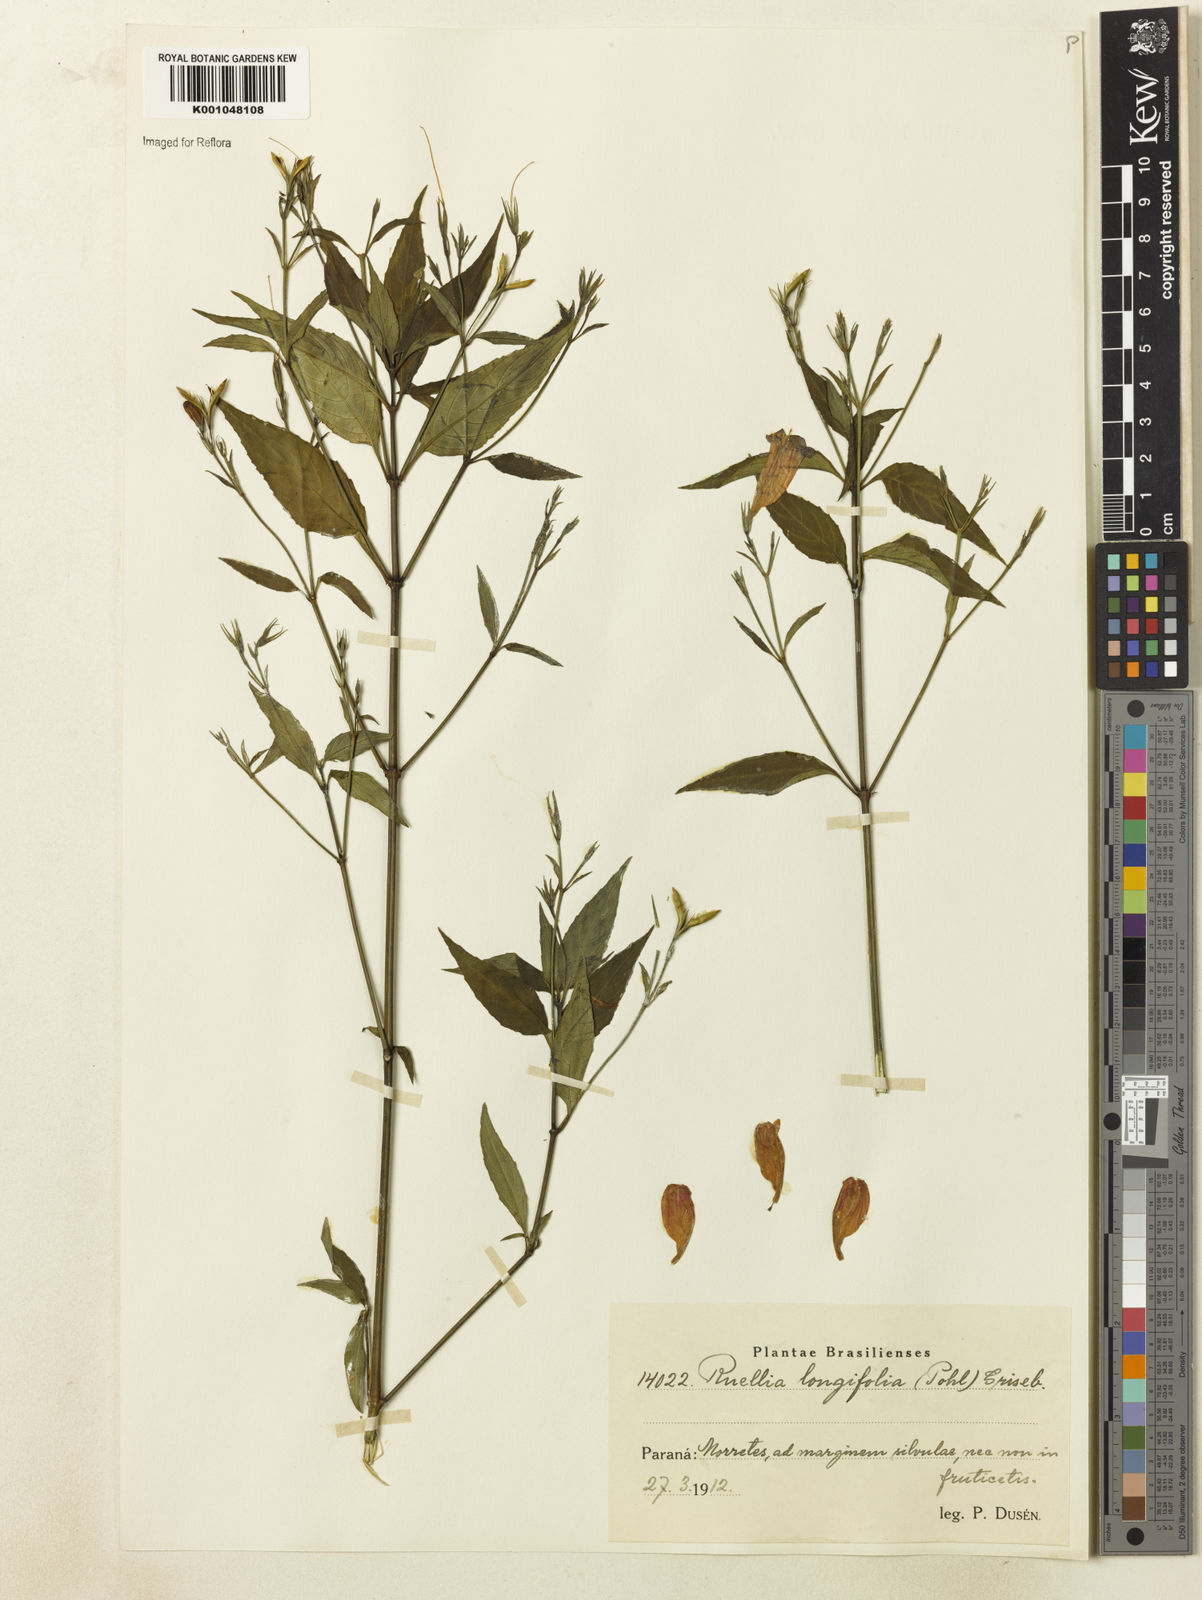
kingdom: Plantae
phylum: Tracheophyta
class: Magnoliopsida
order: Lamiales
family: Acanthaceae
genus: Ruellia
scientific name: Ruellia brevifolia
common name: Tropical wild petunia
